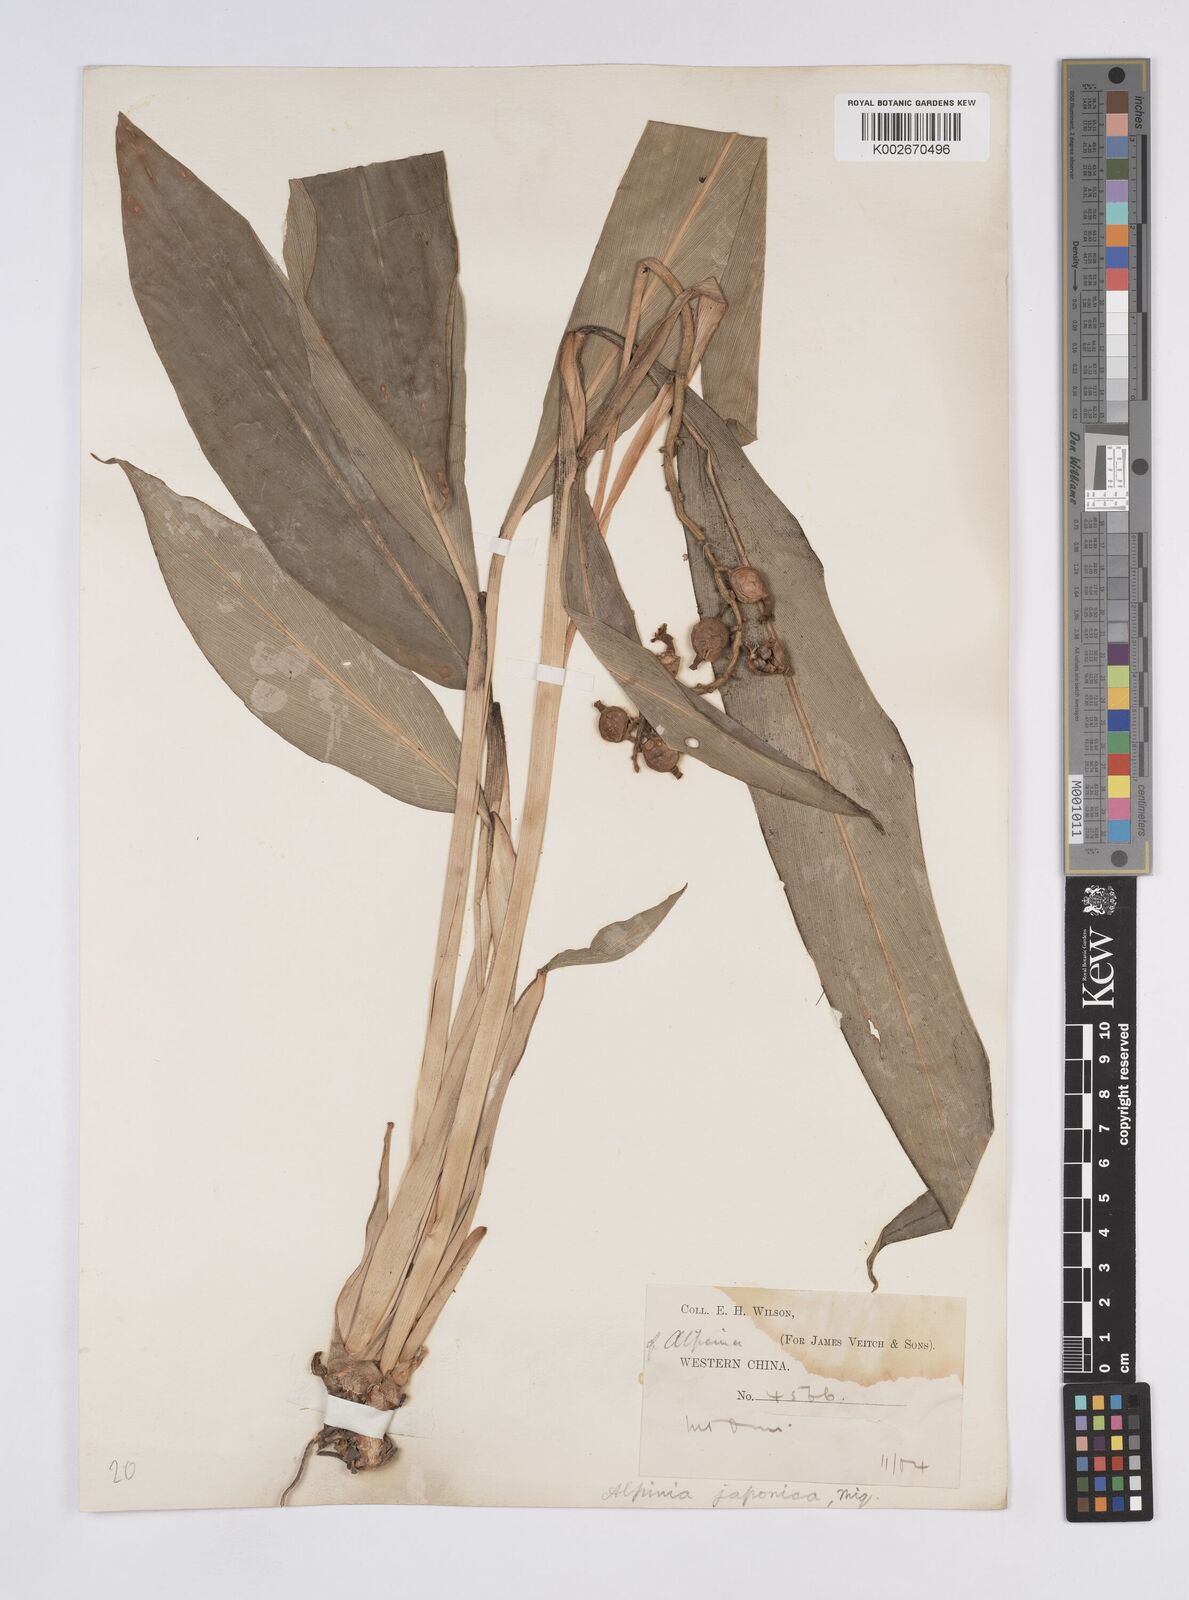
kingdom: Plantae
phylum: Tracheophyta
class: Liliopsida
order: Zingiberales
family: Zingiberaceae
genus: Alpinia
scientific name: Alpinia japonica
